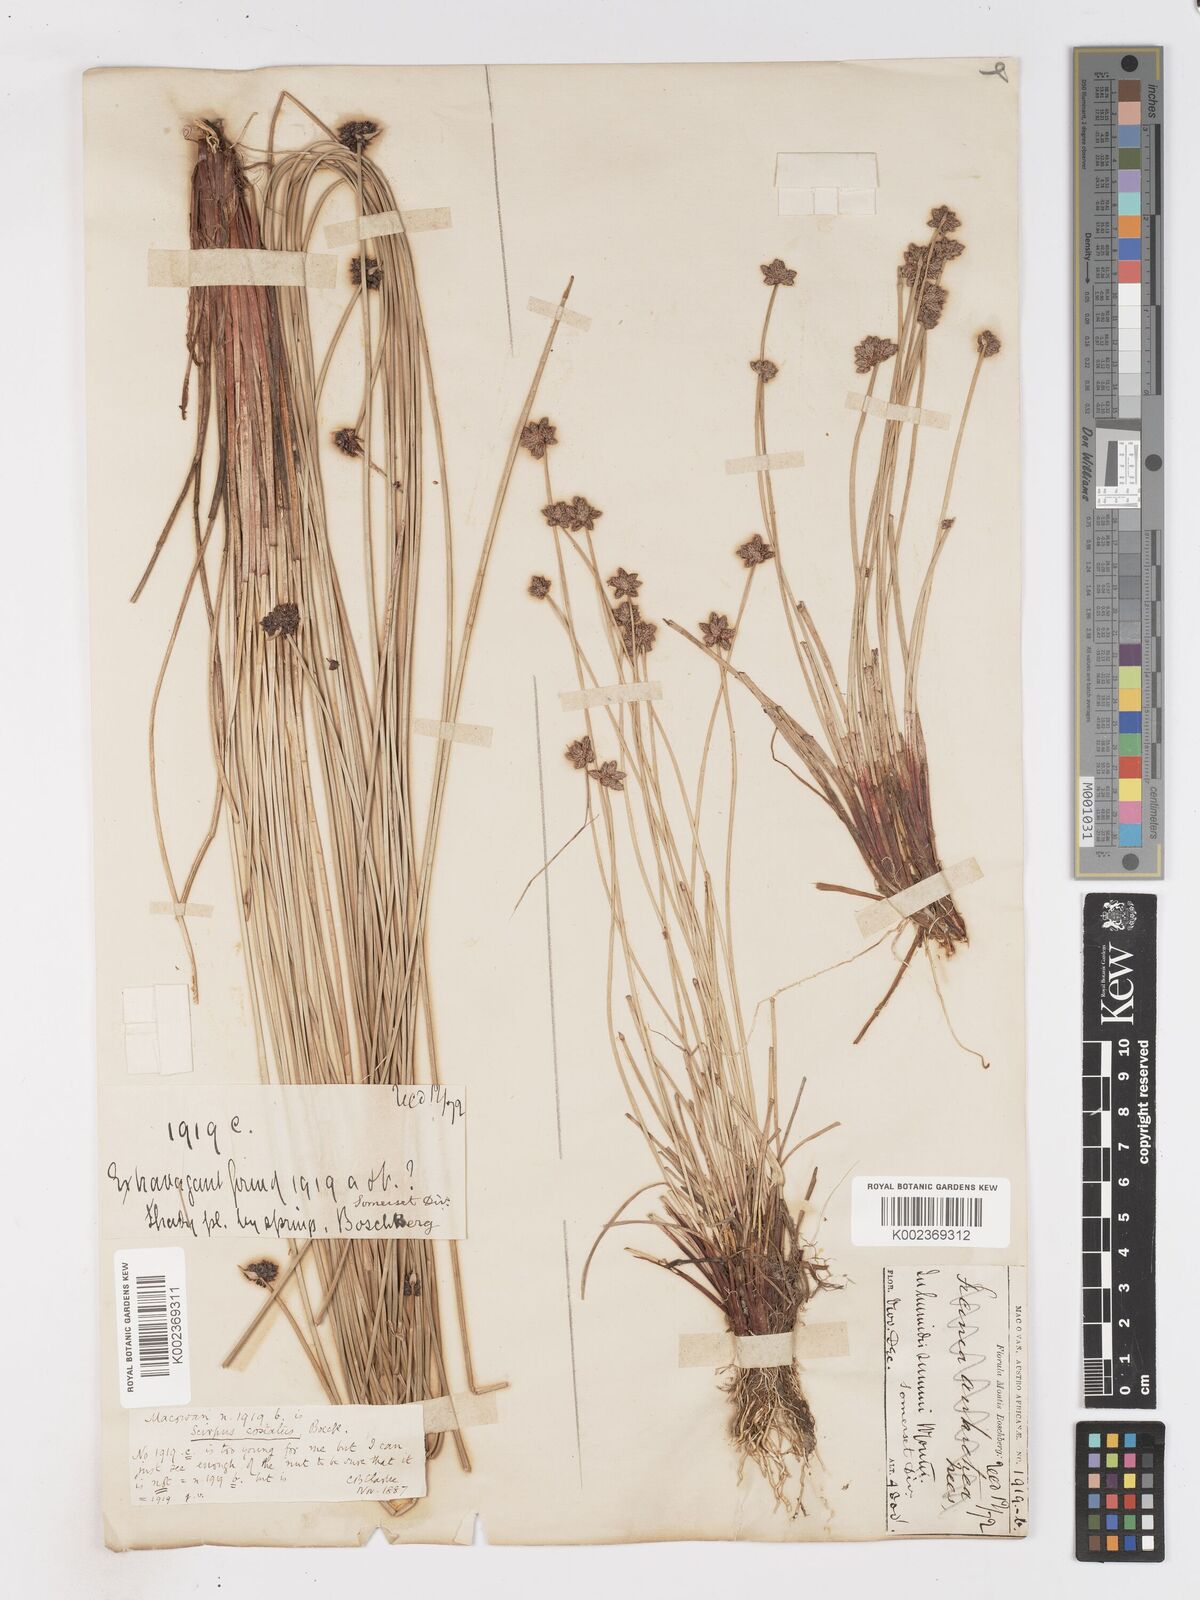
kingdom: Plantae
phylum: Tracheophyta
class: Liliopsida
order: Poales
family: Cyperaceae
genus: Isolepis
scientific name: Isolepis costata
